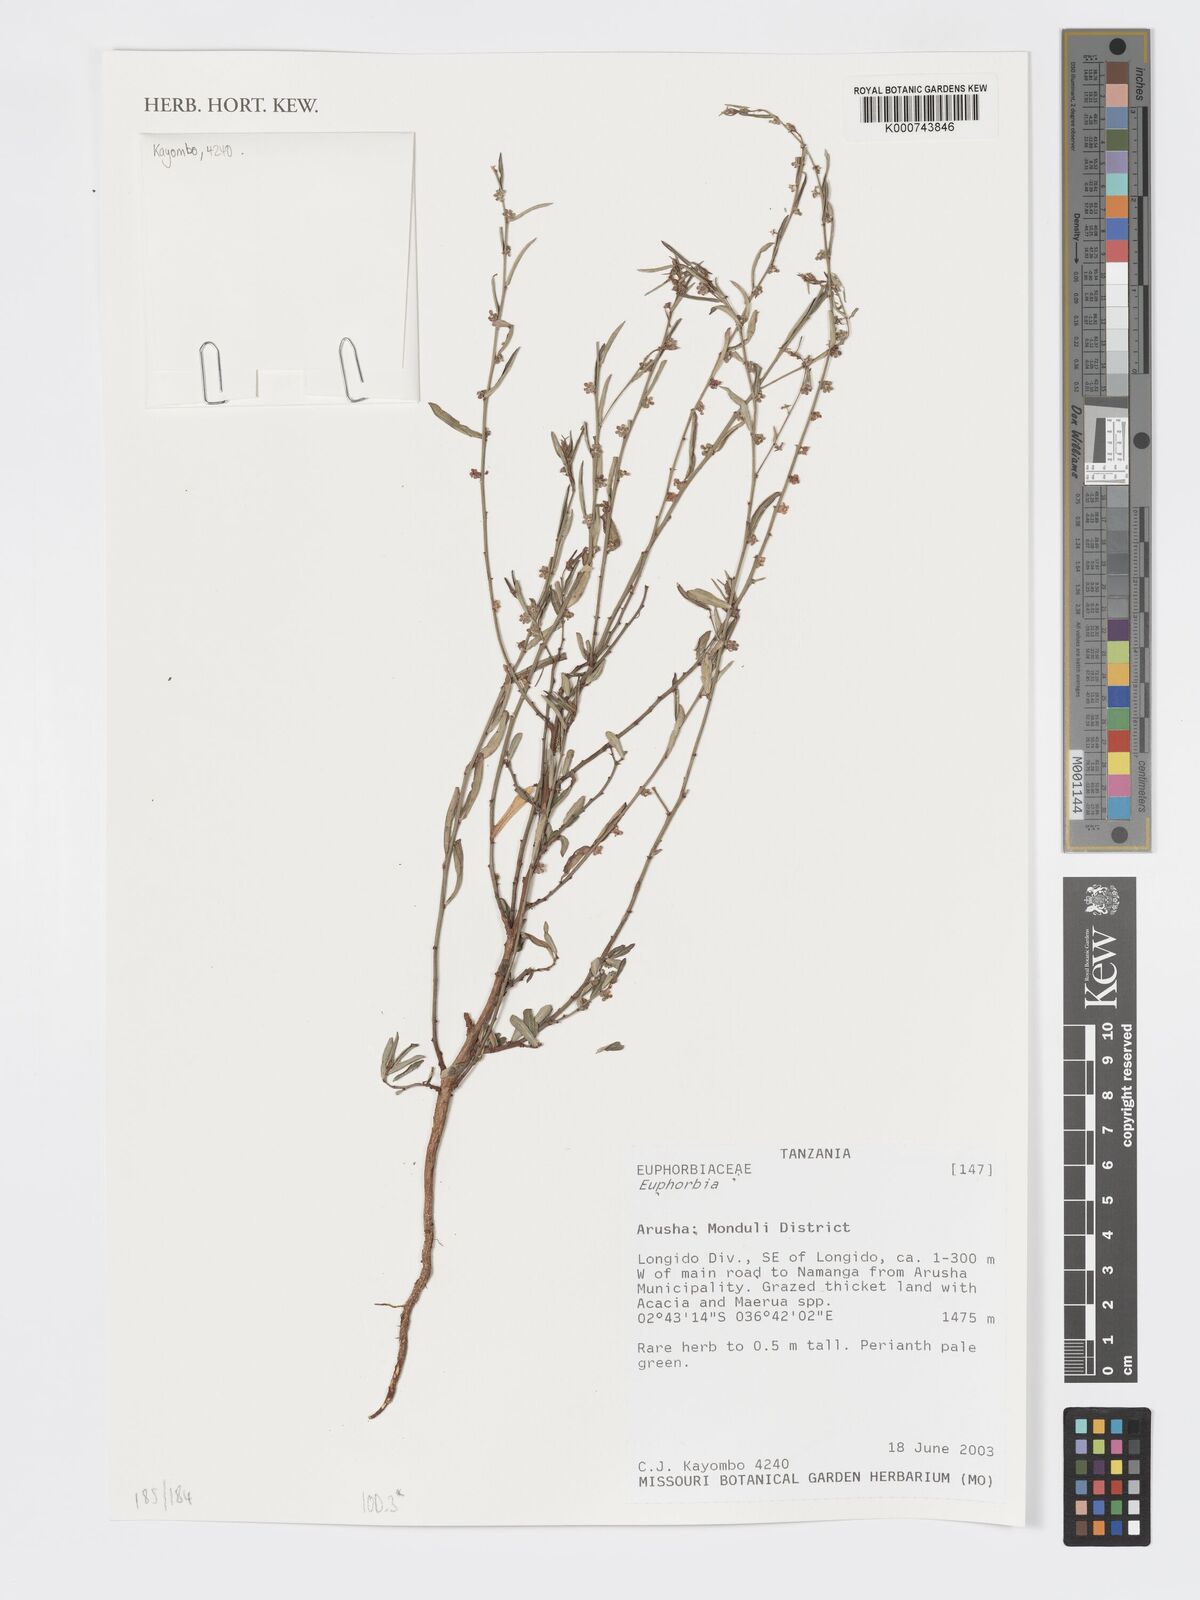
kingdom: Plantae
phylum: Tracheophyta
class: Magnoliopsida
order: Malpighiales
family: Euphorbiaceae
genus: Euphorbia
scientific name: Euphorbia
